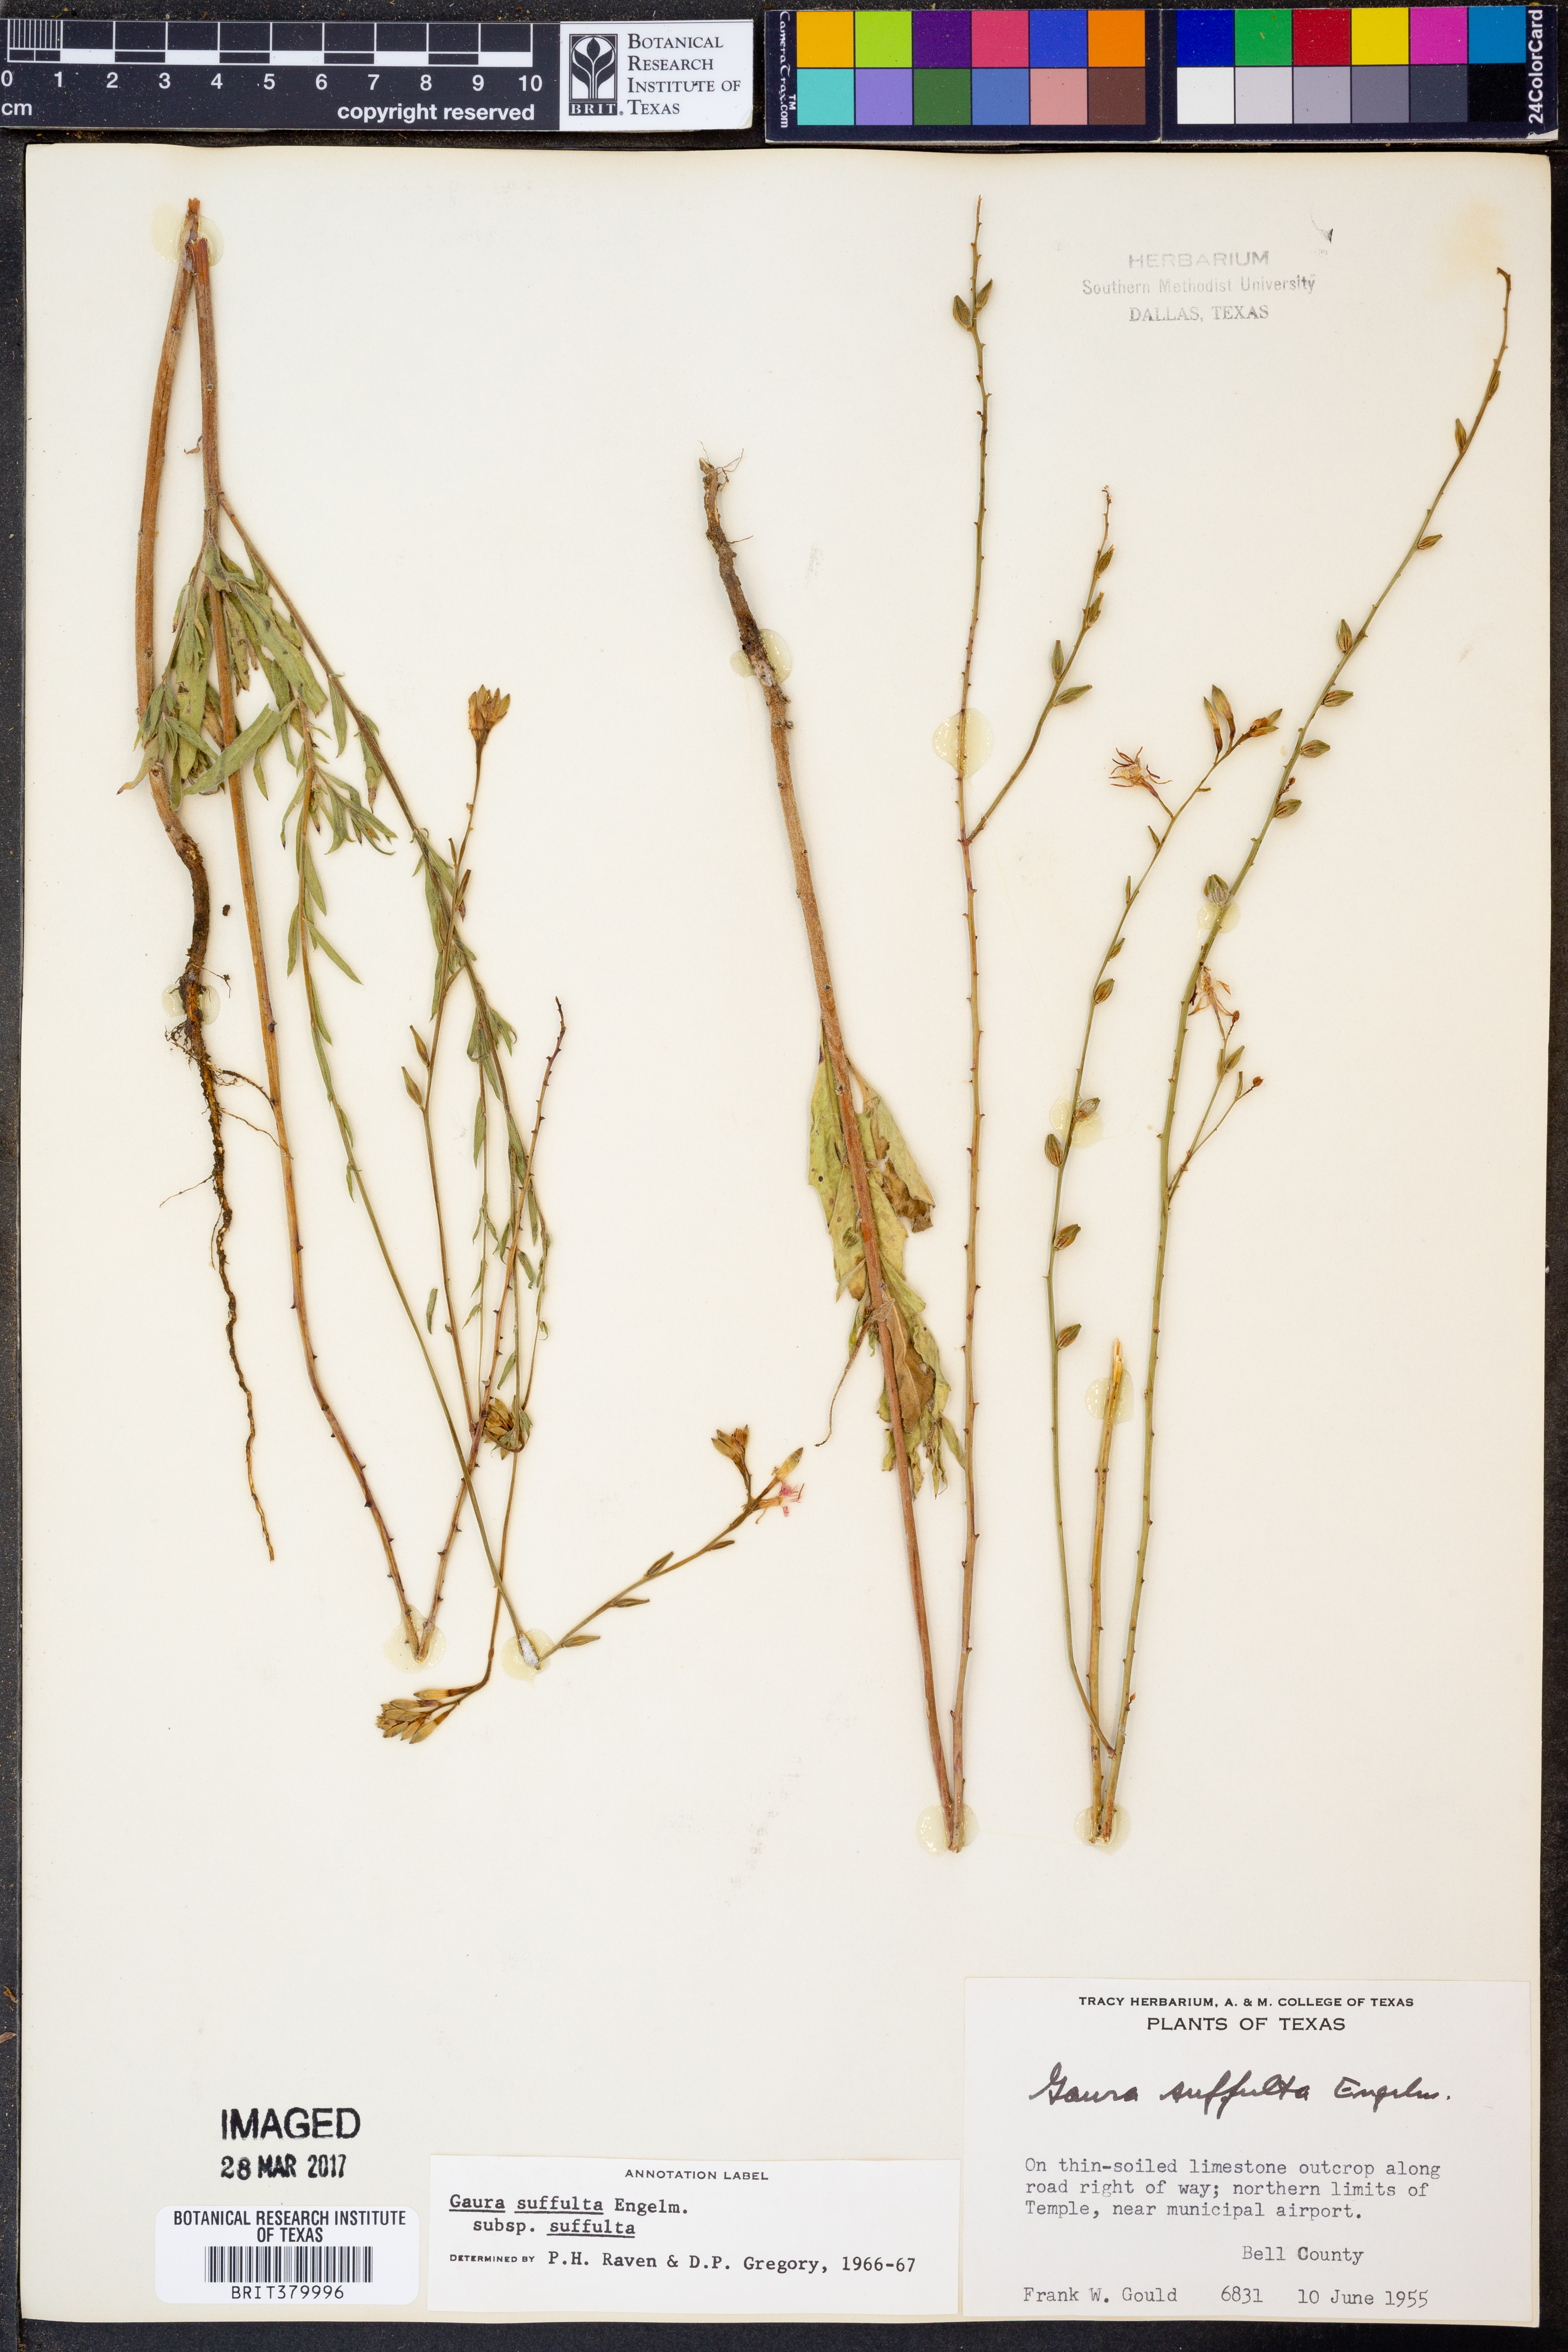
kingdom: Plantae
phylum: Tracheophyta
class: Magnoliopsida
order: Myrtales
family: Onagraceae
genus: Oenothera
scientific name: Oenothera suffulta
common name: Kisses
